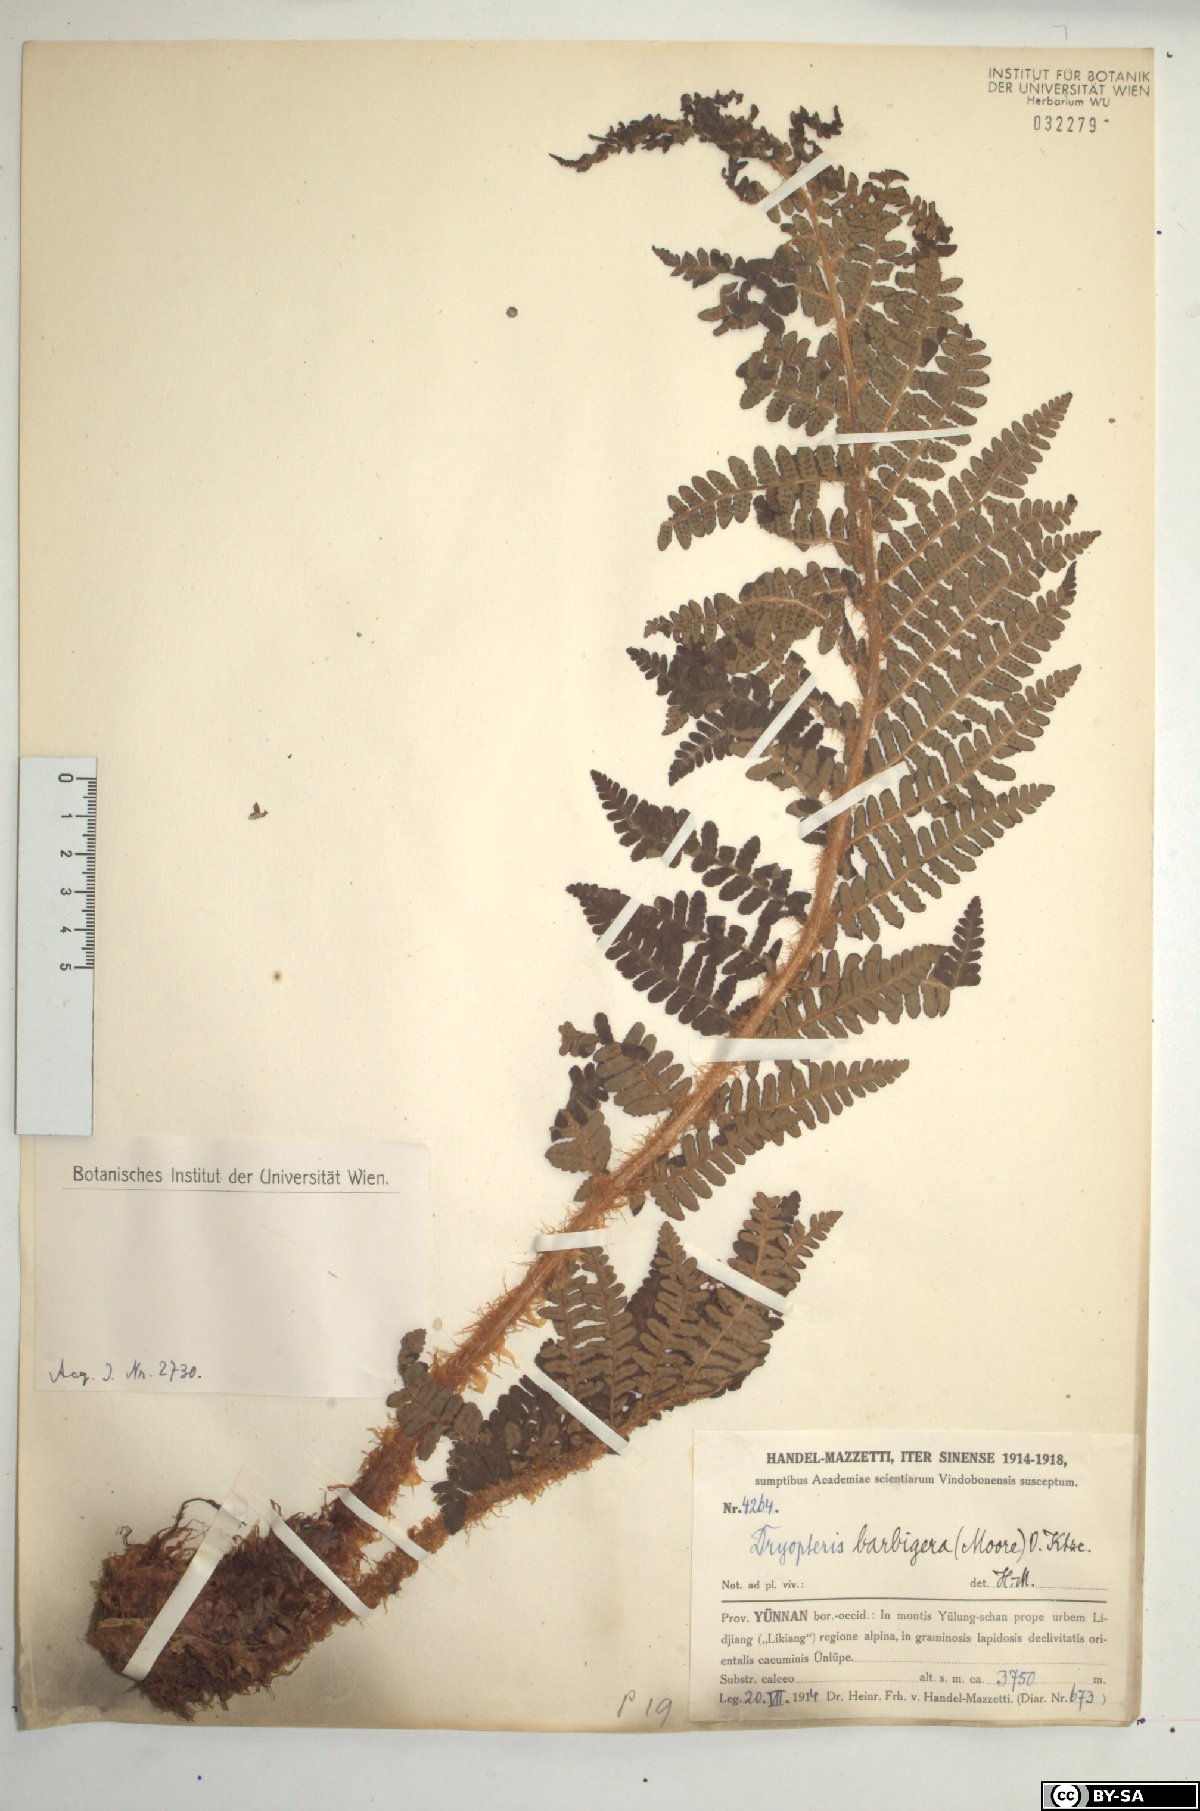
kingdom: Plantae
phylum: Tracheophyta
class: Polypodiopsida
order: Polypodiales
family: Dryopteridaceae
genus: Dryopteris
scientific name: Dryopteris barbigera
